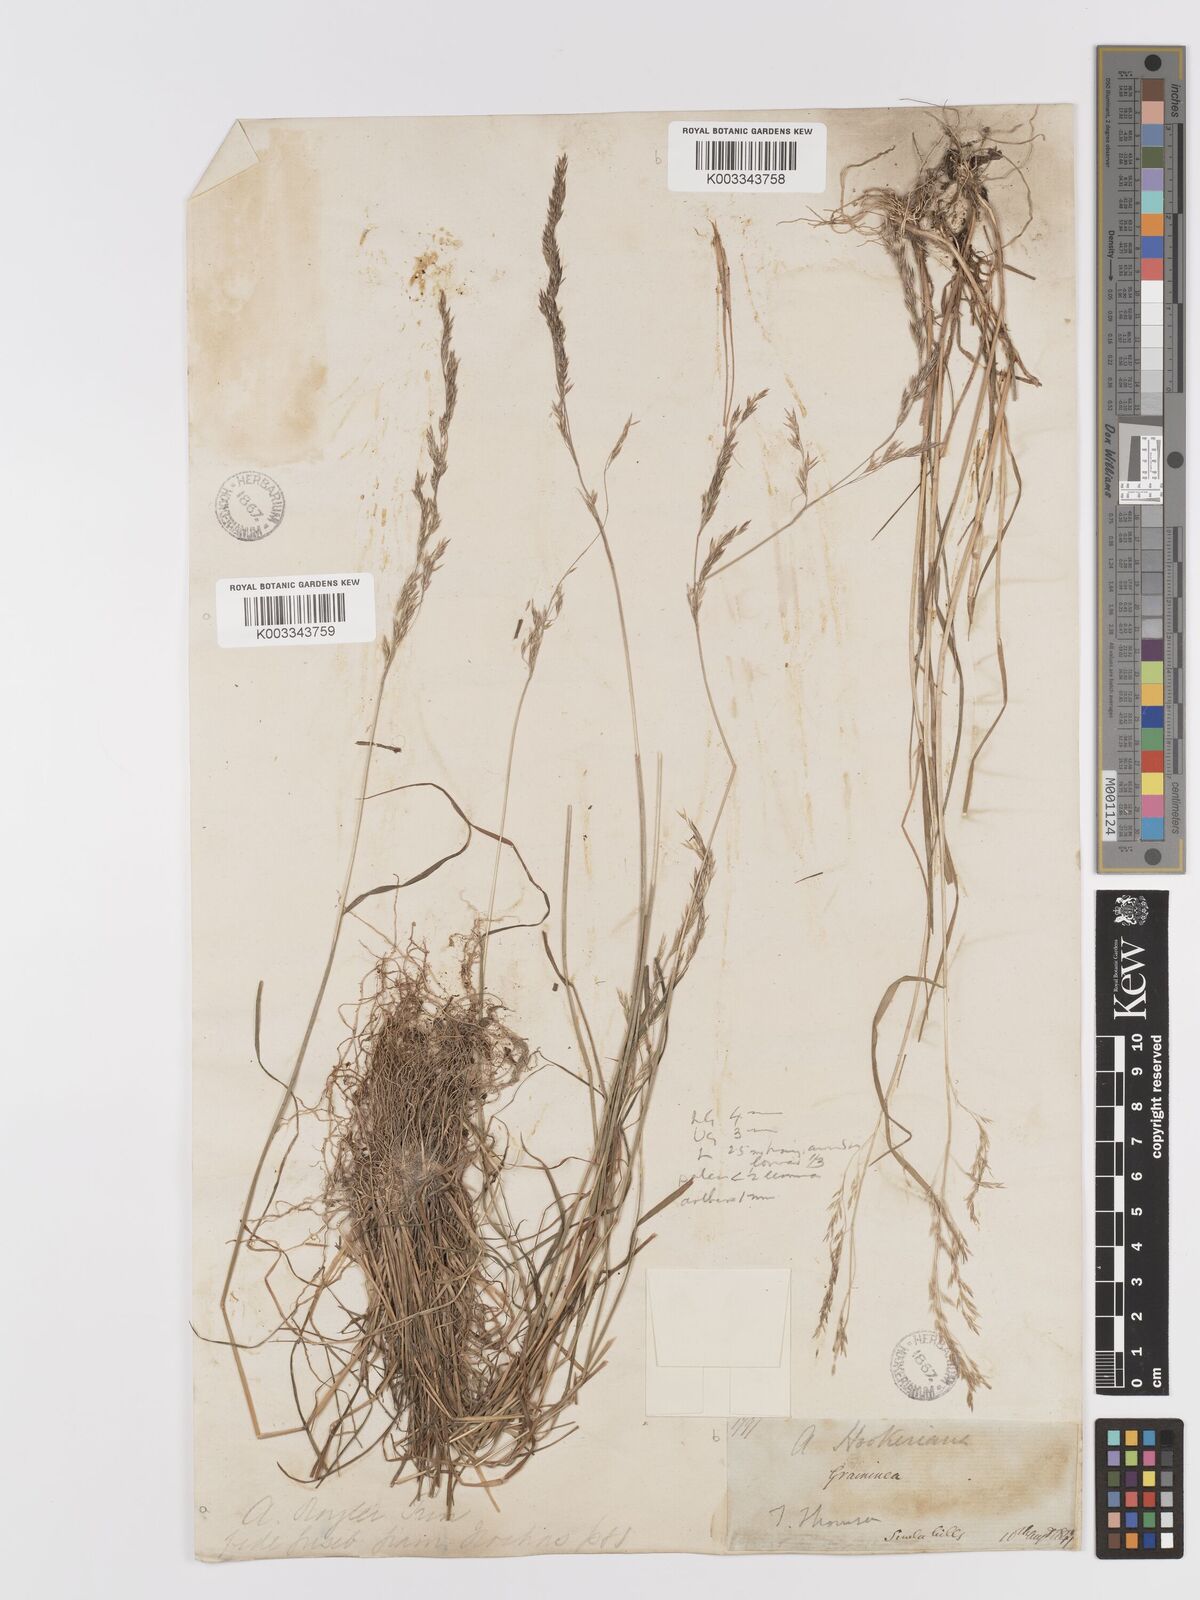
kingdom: Plantae
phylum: Tracheophyta
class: Liliopsida
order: Poales
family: Poaceae
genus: Agrostis
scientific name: Agrostis pilosula
